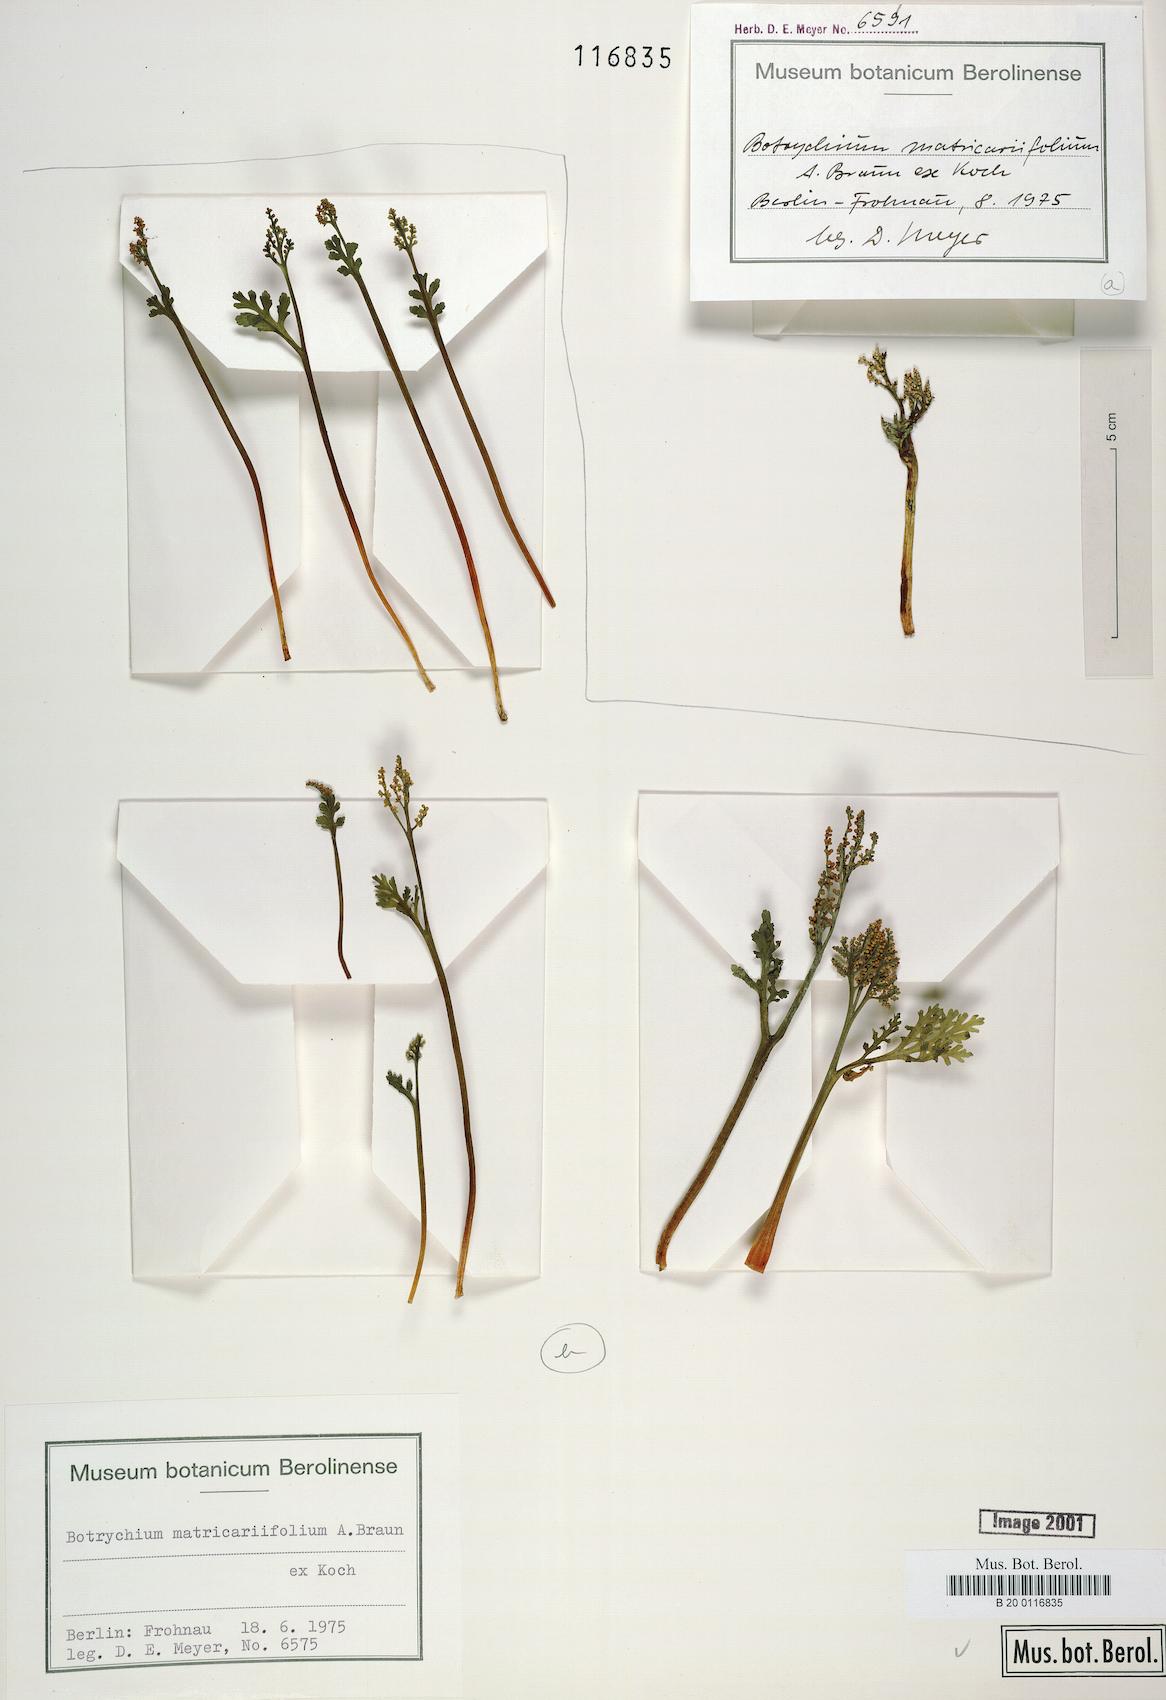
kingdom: Plantae
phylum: Tracheophyta
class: Polypodiopsida
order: Ophioglossales
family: Ophioglossaceae
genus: Botrychium
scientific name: Botrychium matricariifolium
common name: Branched moonwort
